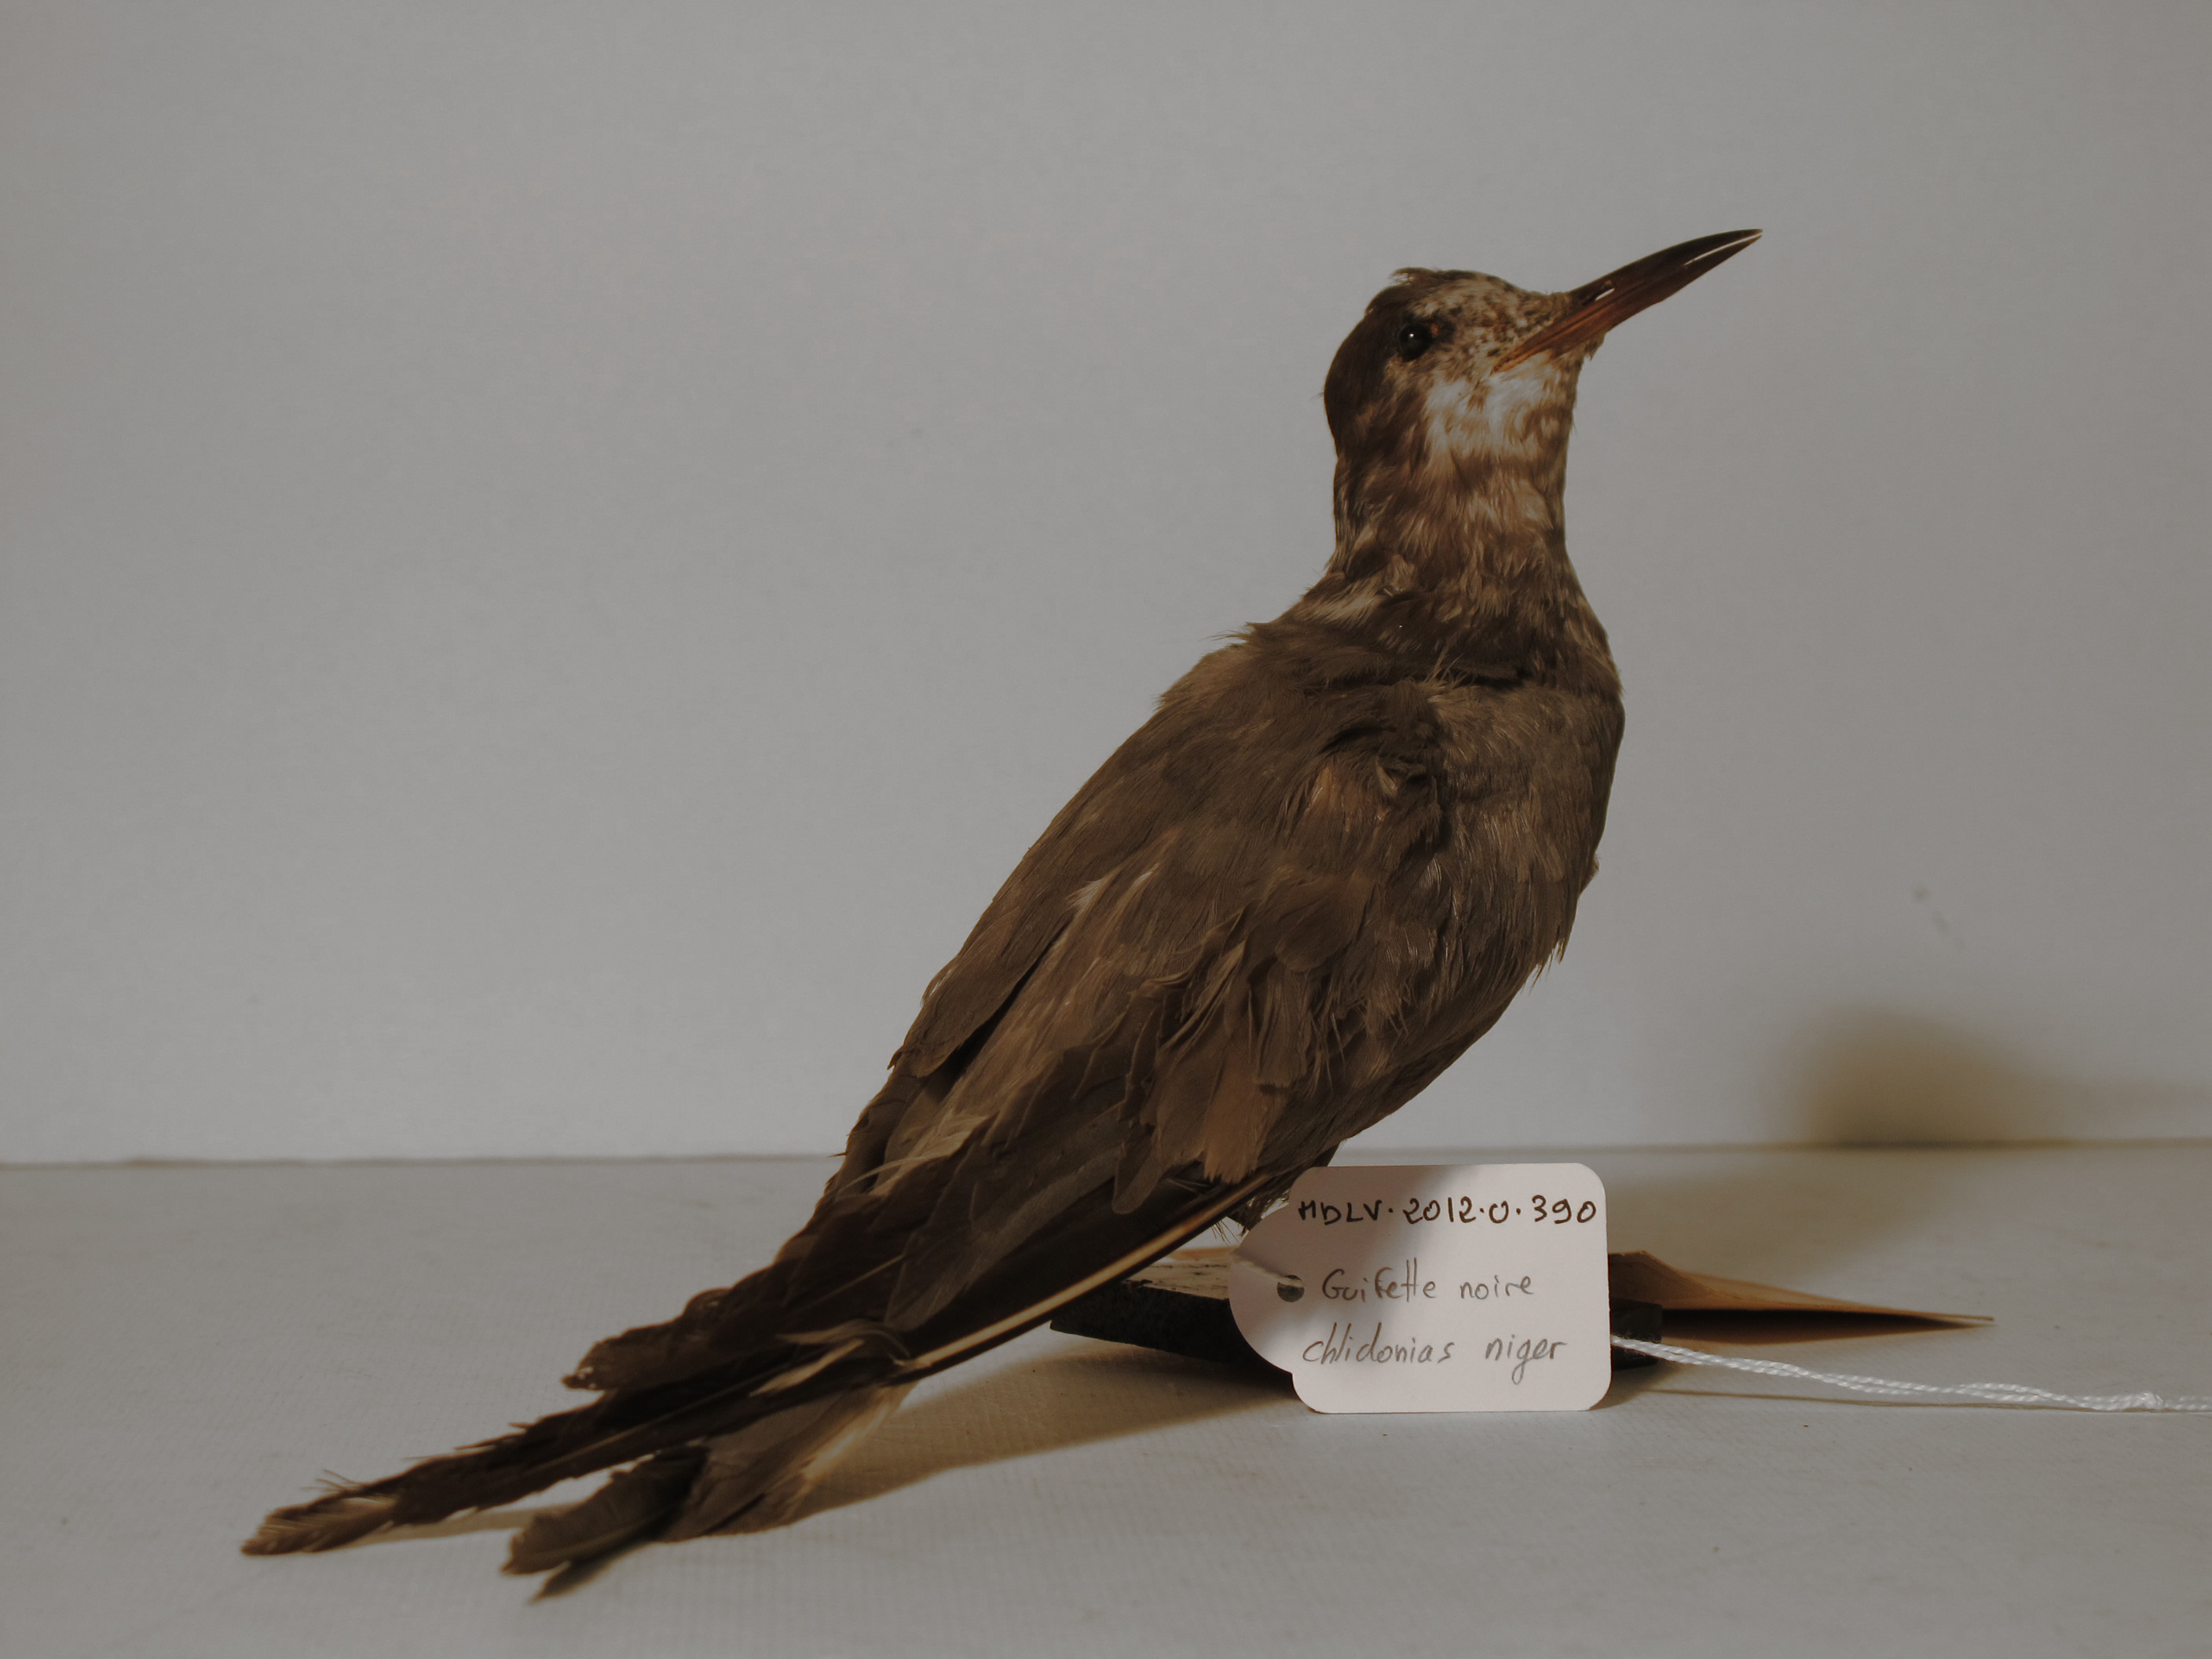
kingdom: Animalia
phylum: Chordata
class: Aves
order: Charadriiformes
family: Laridae
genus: Chlidonias
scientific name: Chlidonias niger
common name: Black Tern
